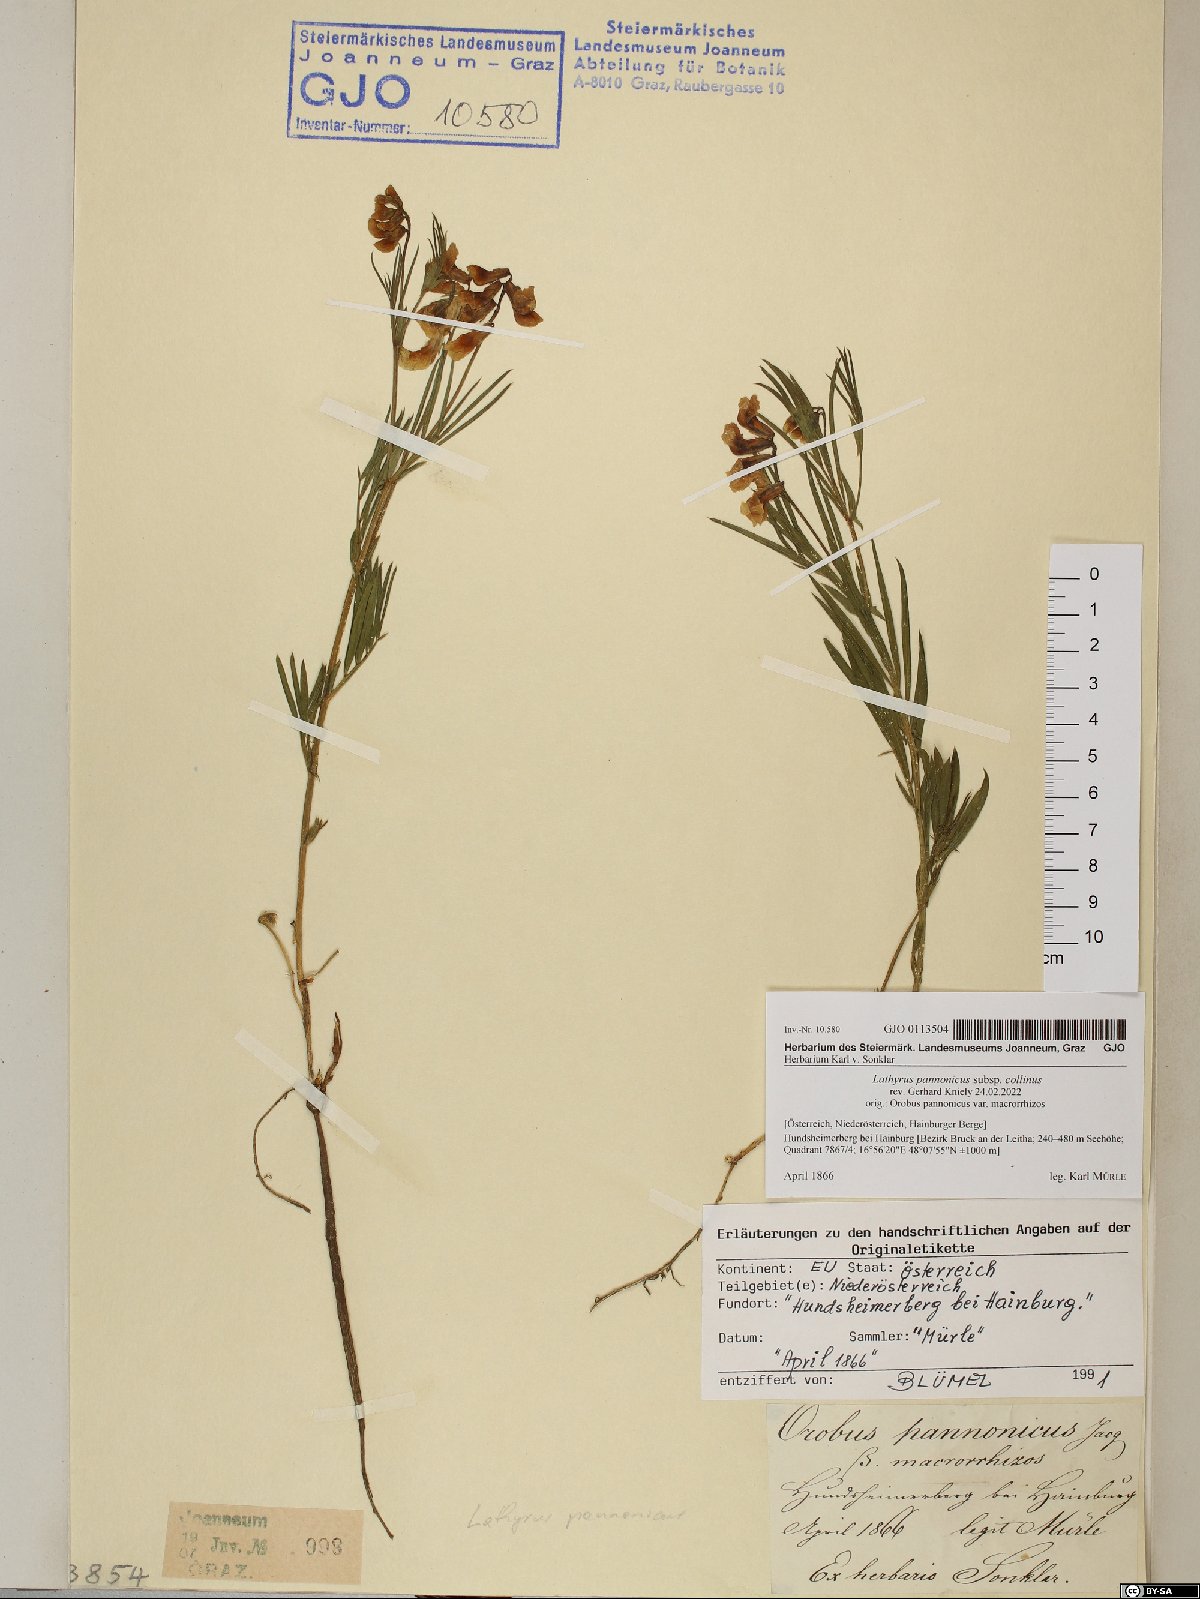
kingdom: Plantae
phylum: Tracheophyta
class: Magnoliopsida
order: Fabales
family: Fabaceae
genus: Lathyrus
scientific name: Lathyrus pannonicus
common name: Pea
